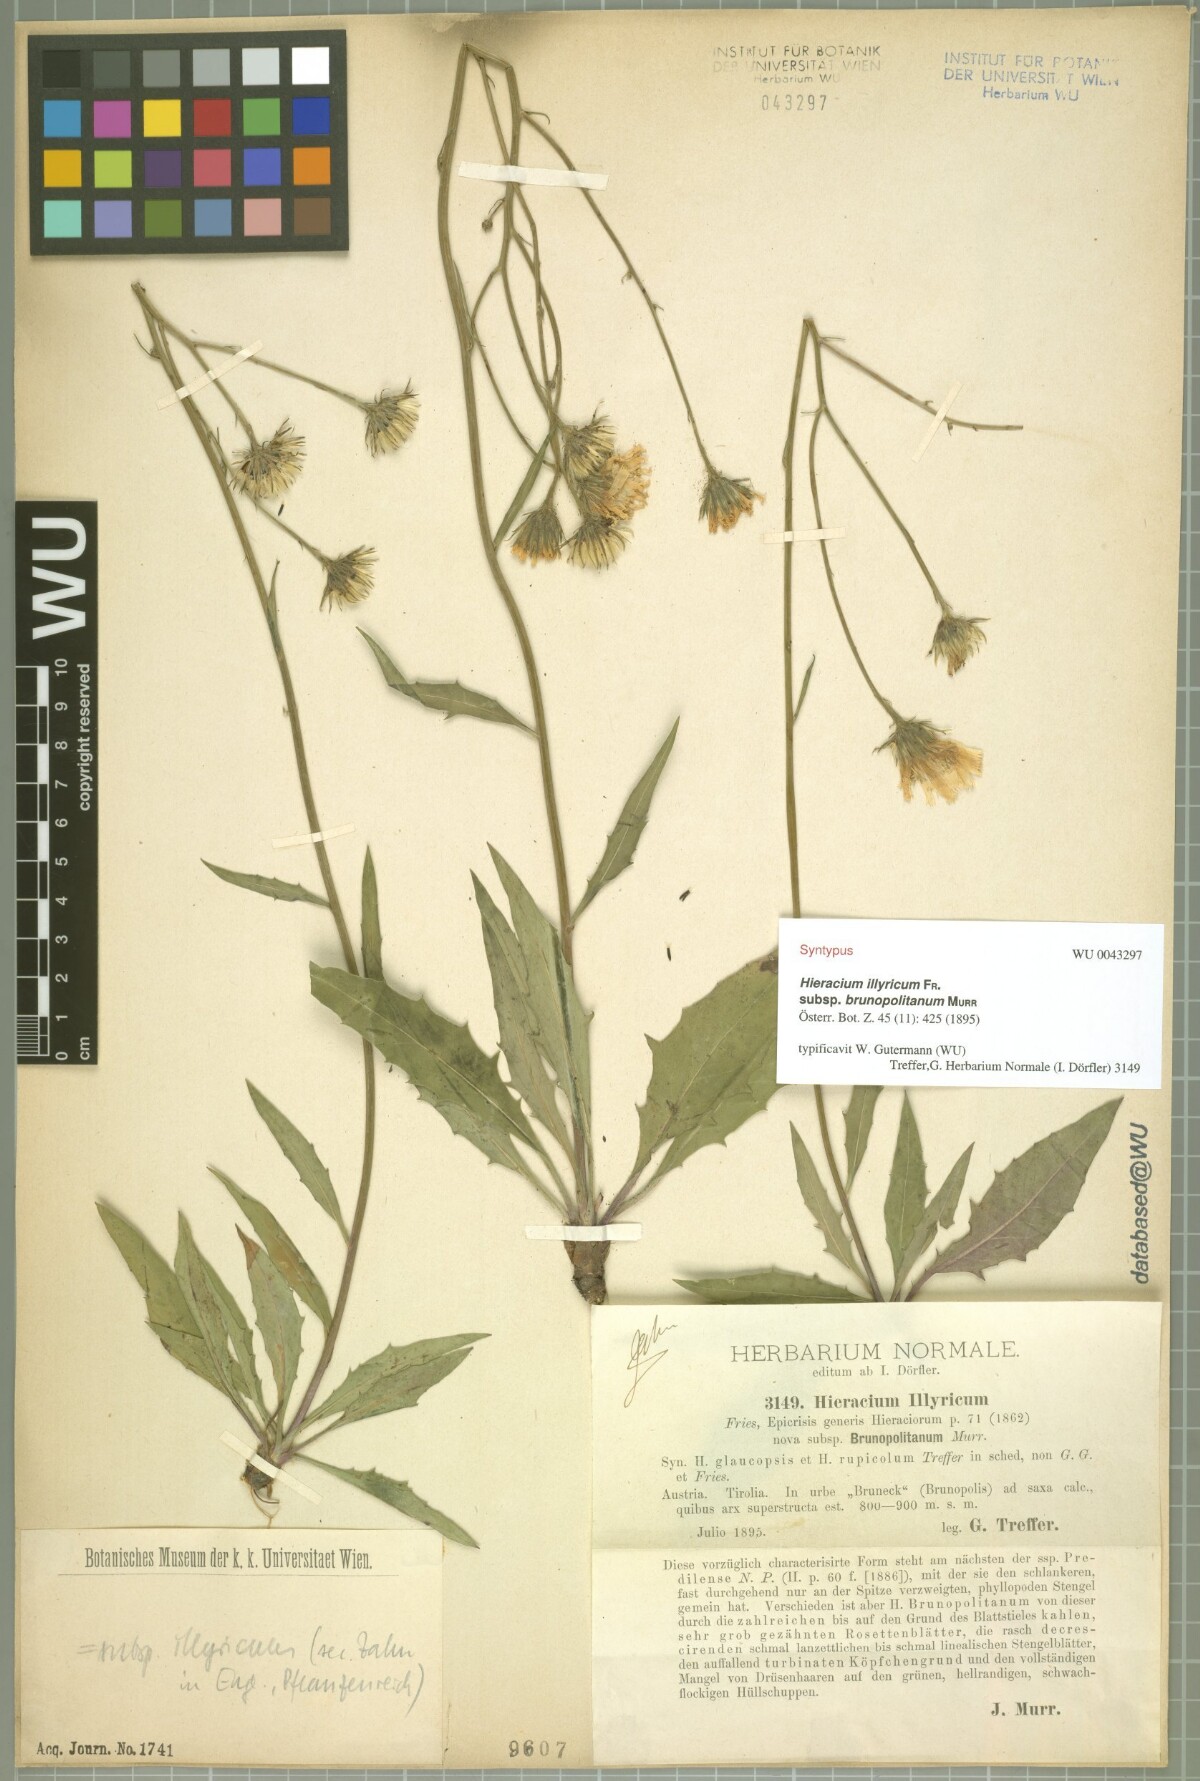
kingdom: Plantae
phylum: Tracheophyta
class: Magnoliopsida
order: Asterales
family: Asteraceae
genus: Hieracium
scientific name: Hieracium calcareum
